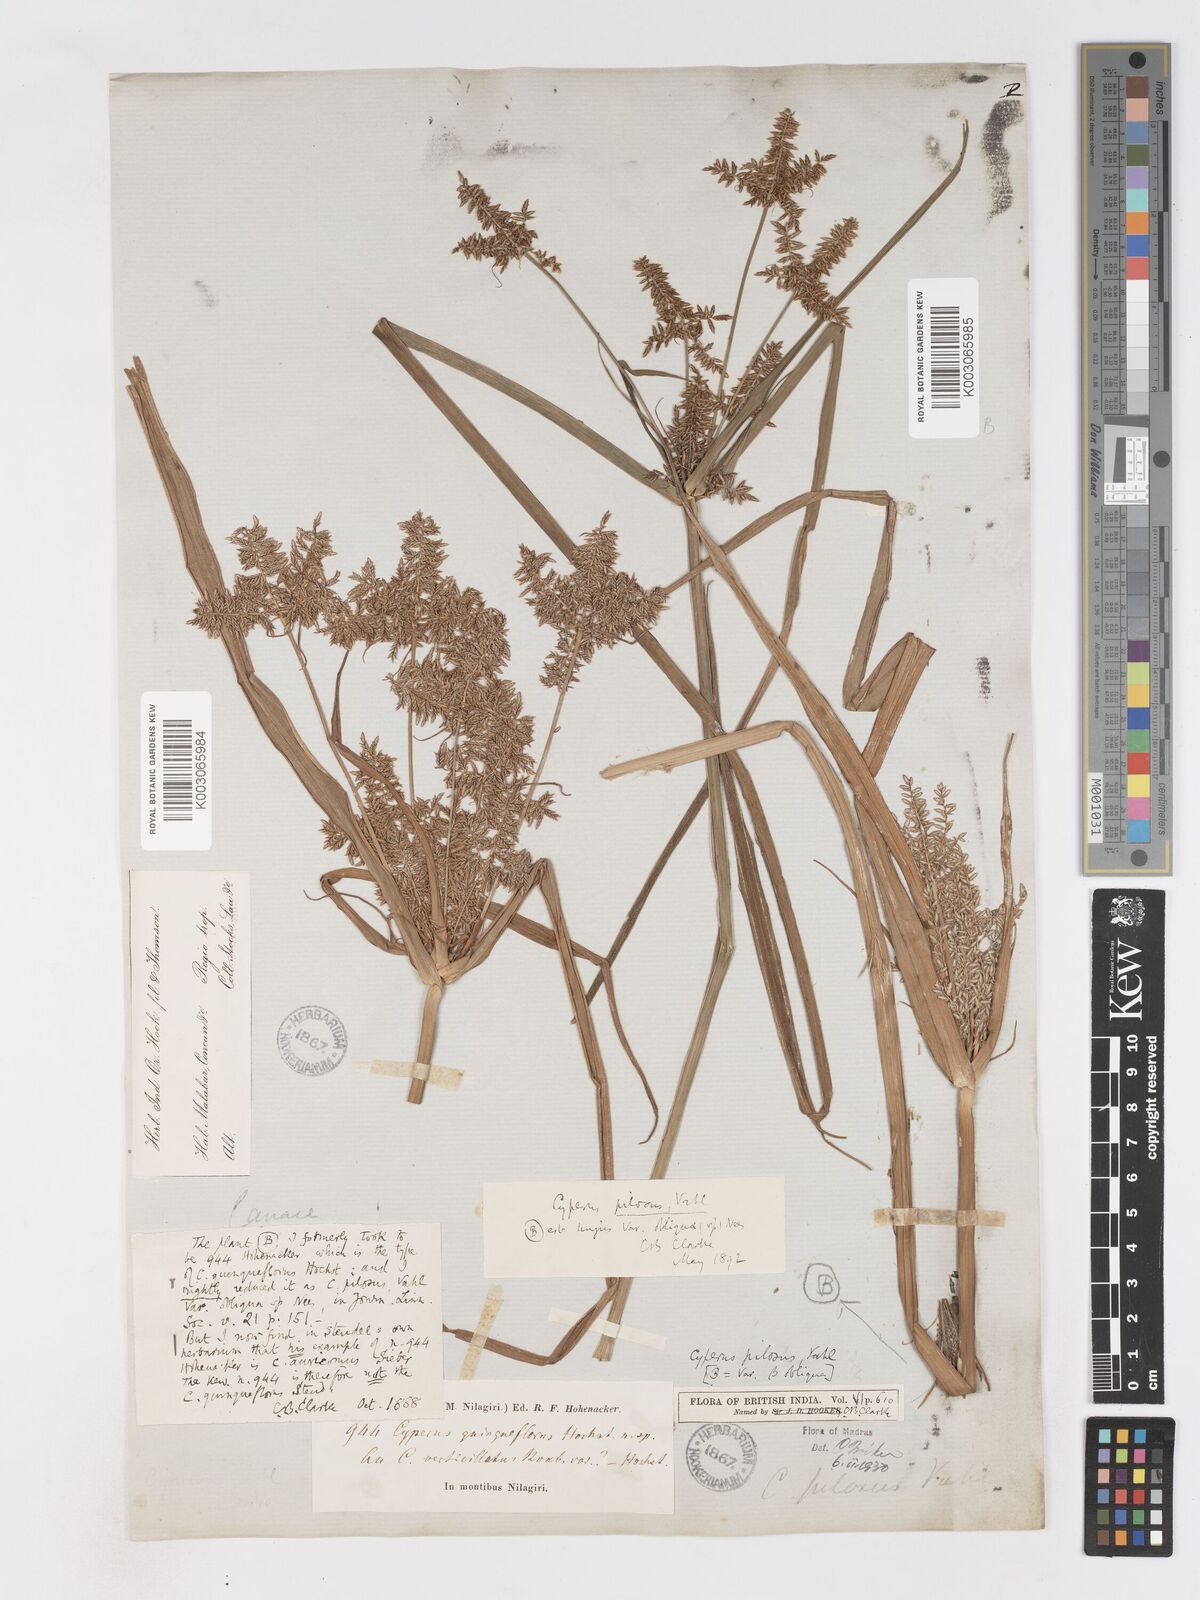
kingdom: Plantae
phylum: Tracheophyta
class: Liliopsida
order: Poales
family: Cyperaceae
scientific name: Cyperaceae
